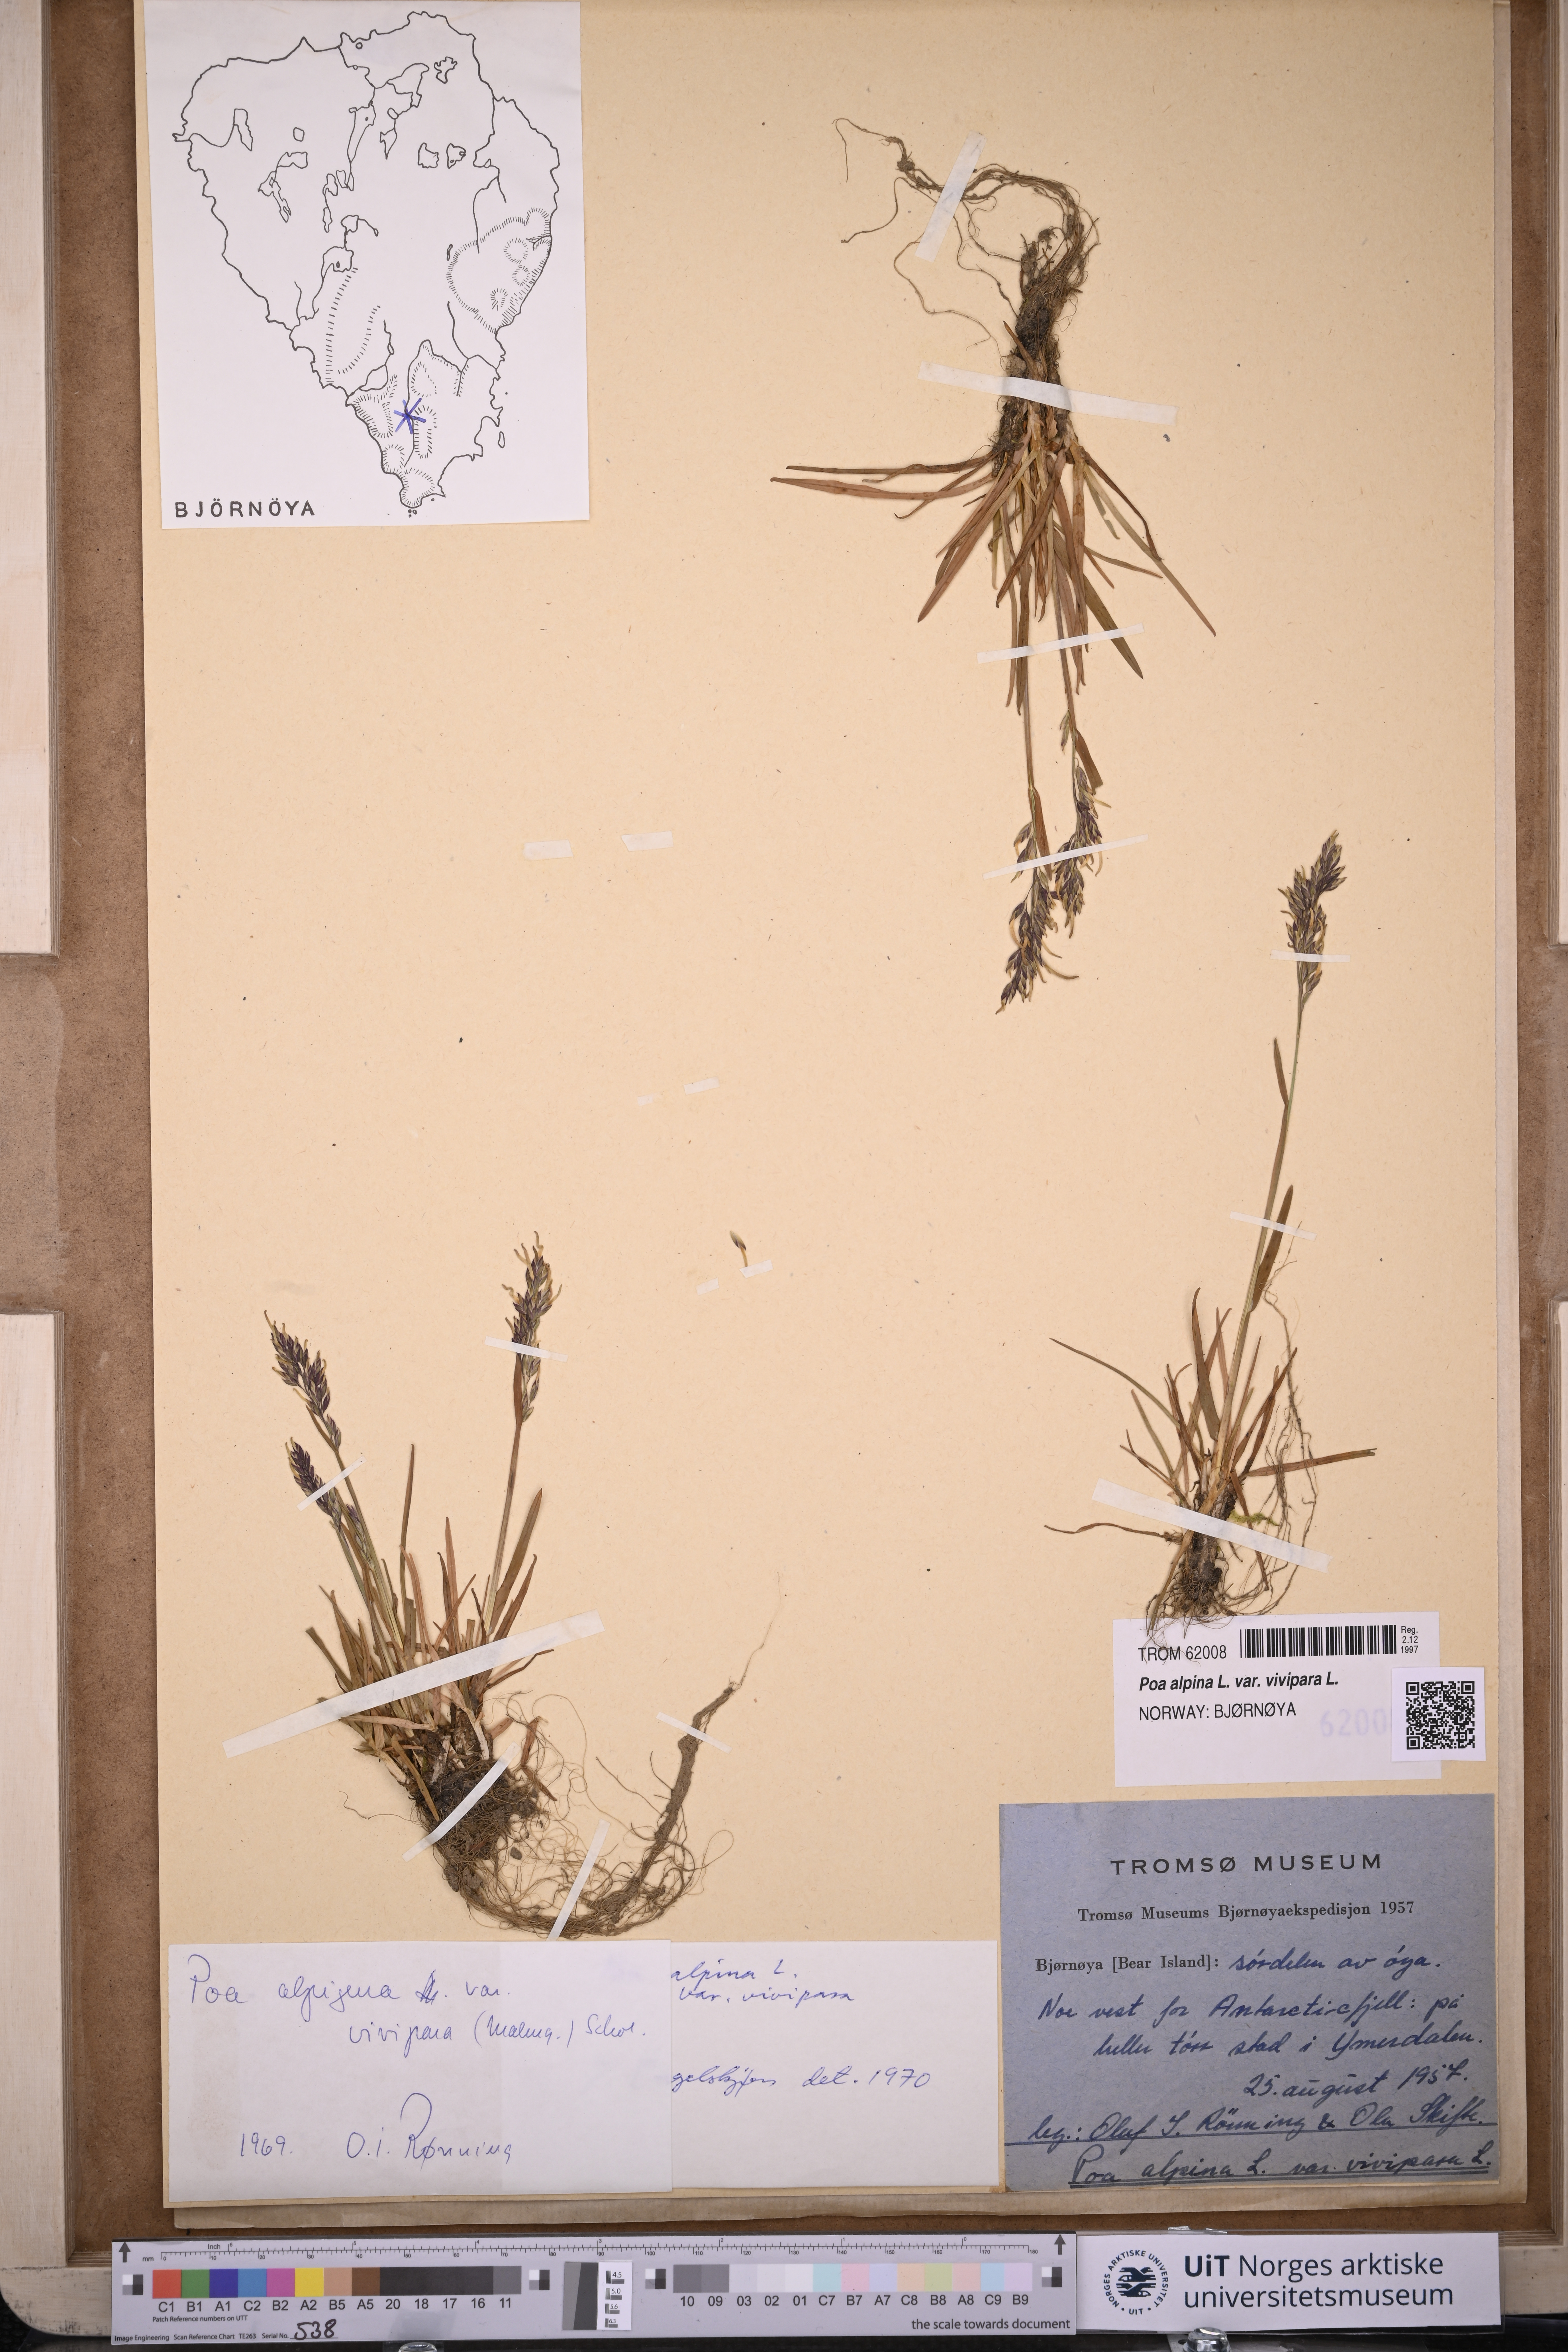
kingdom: Plantae
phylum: Tracheophyta
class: Liliopsida
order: Poales
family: Poaceae
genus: Poa
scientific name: Poa alpina
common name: Alpine bluegrass
